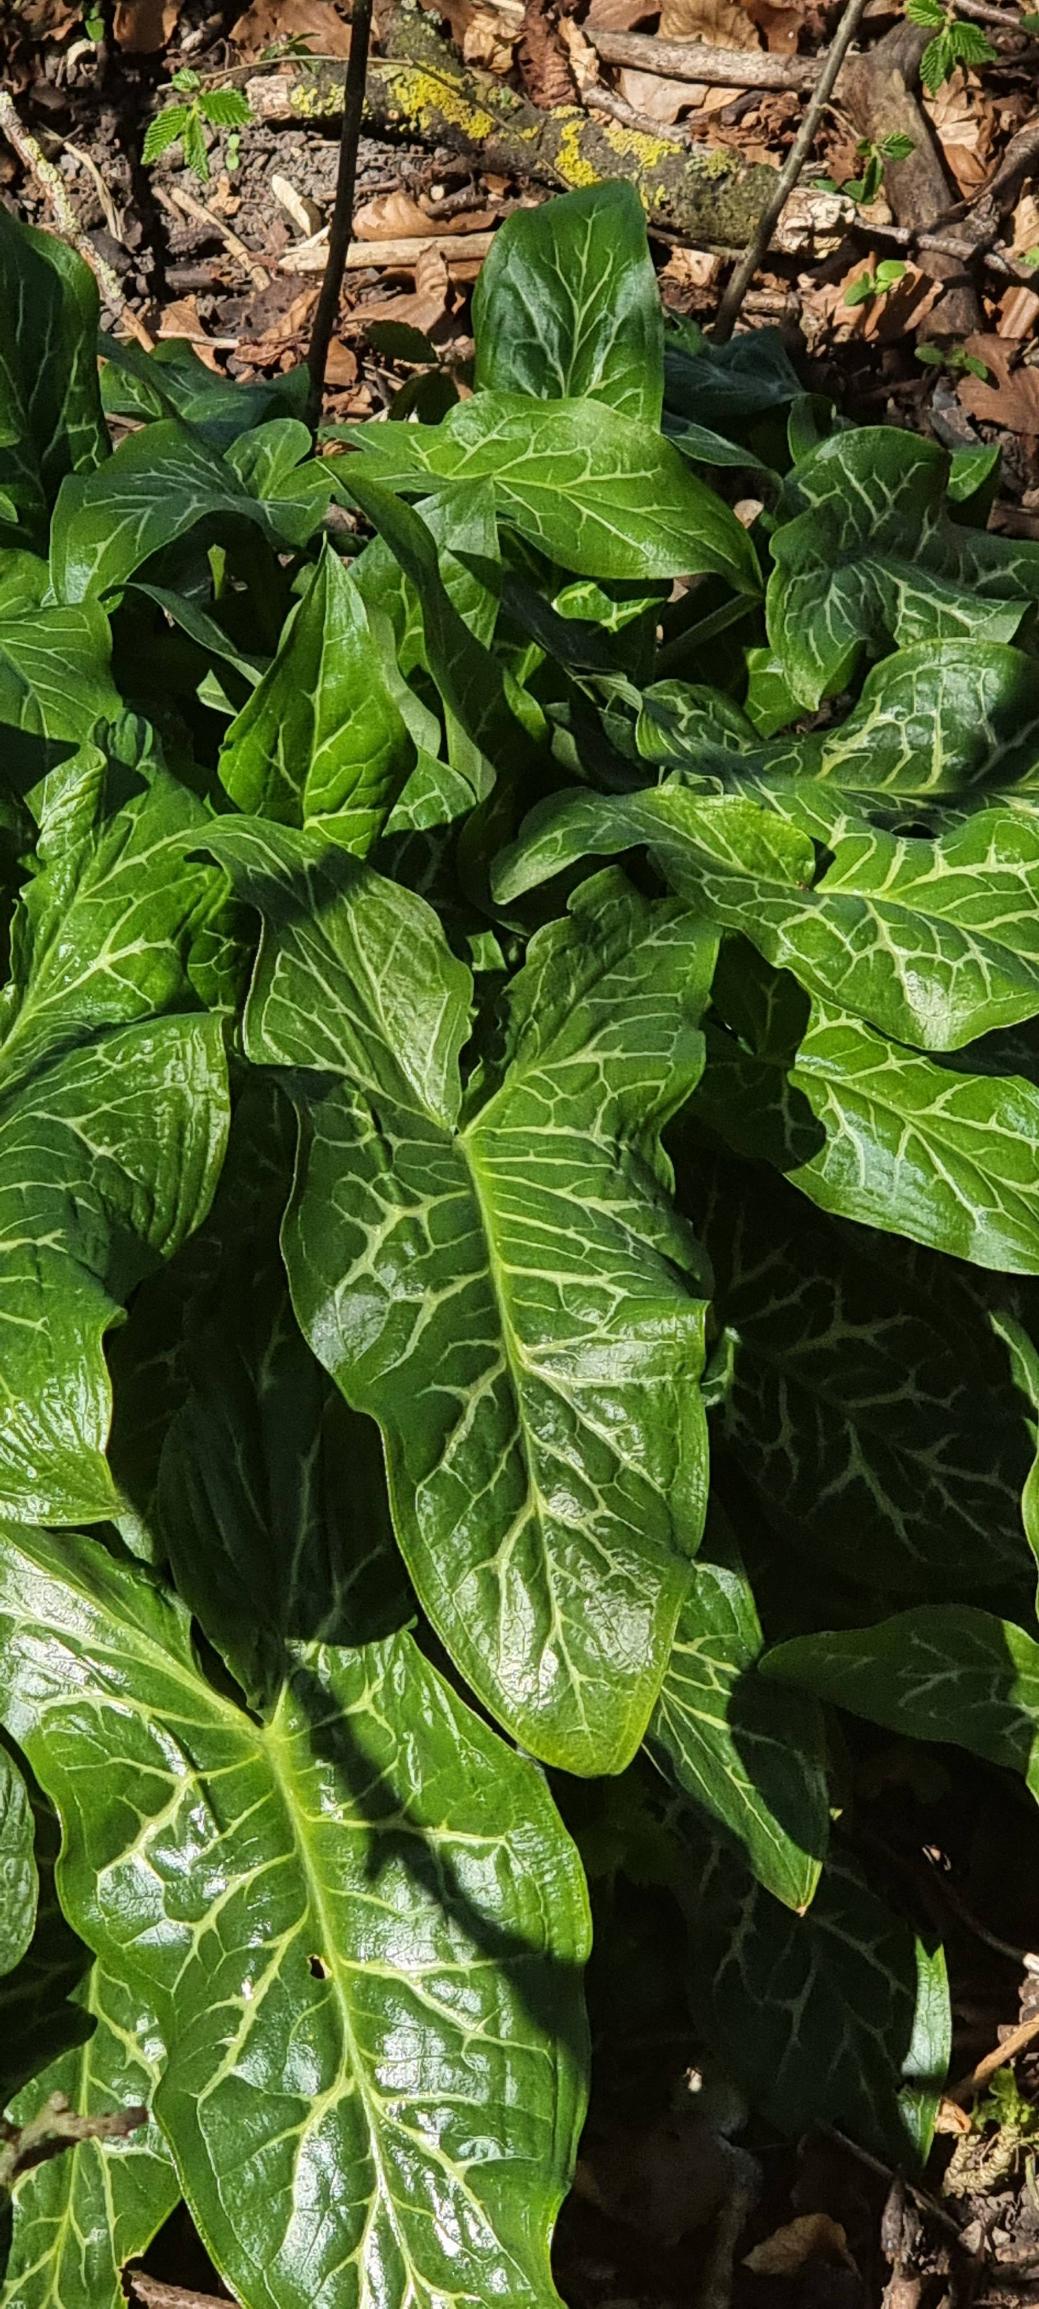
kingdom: Plantae
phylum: Tracheophyta
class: Liliopsida
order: Alismatales
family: Araceae
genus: Arum
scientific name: Arum italicum
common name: Italiensk arum
